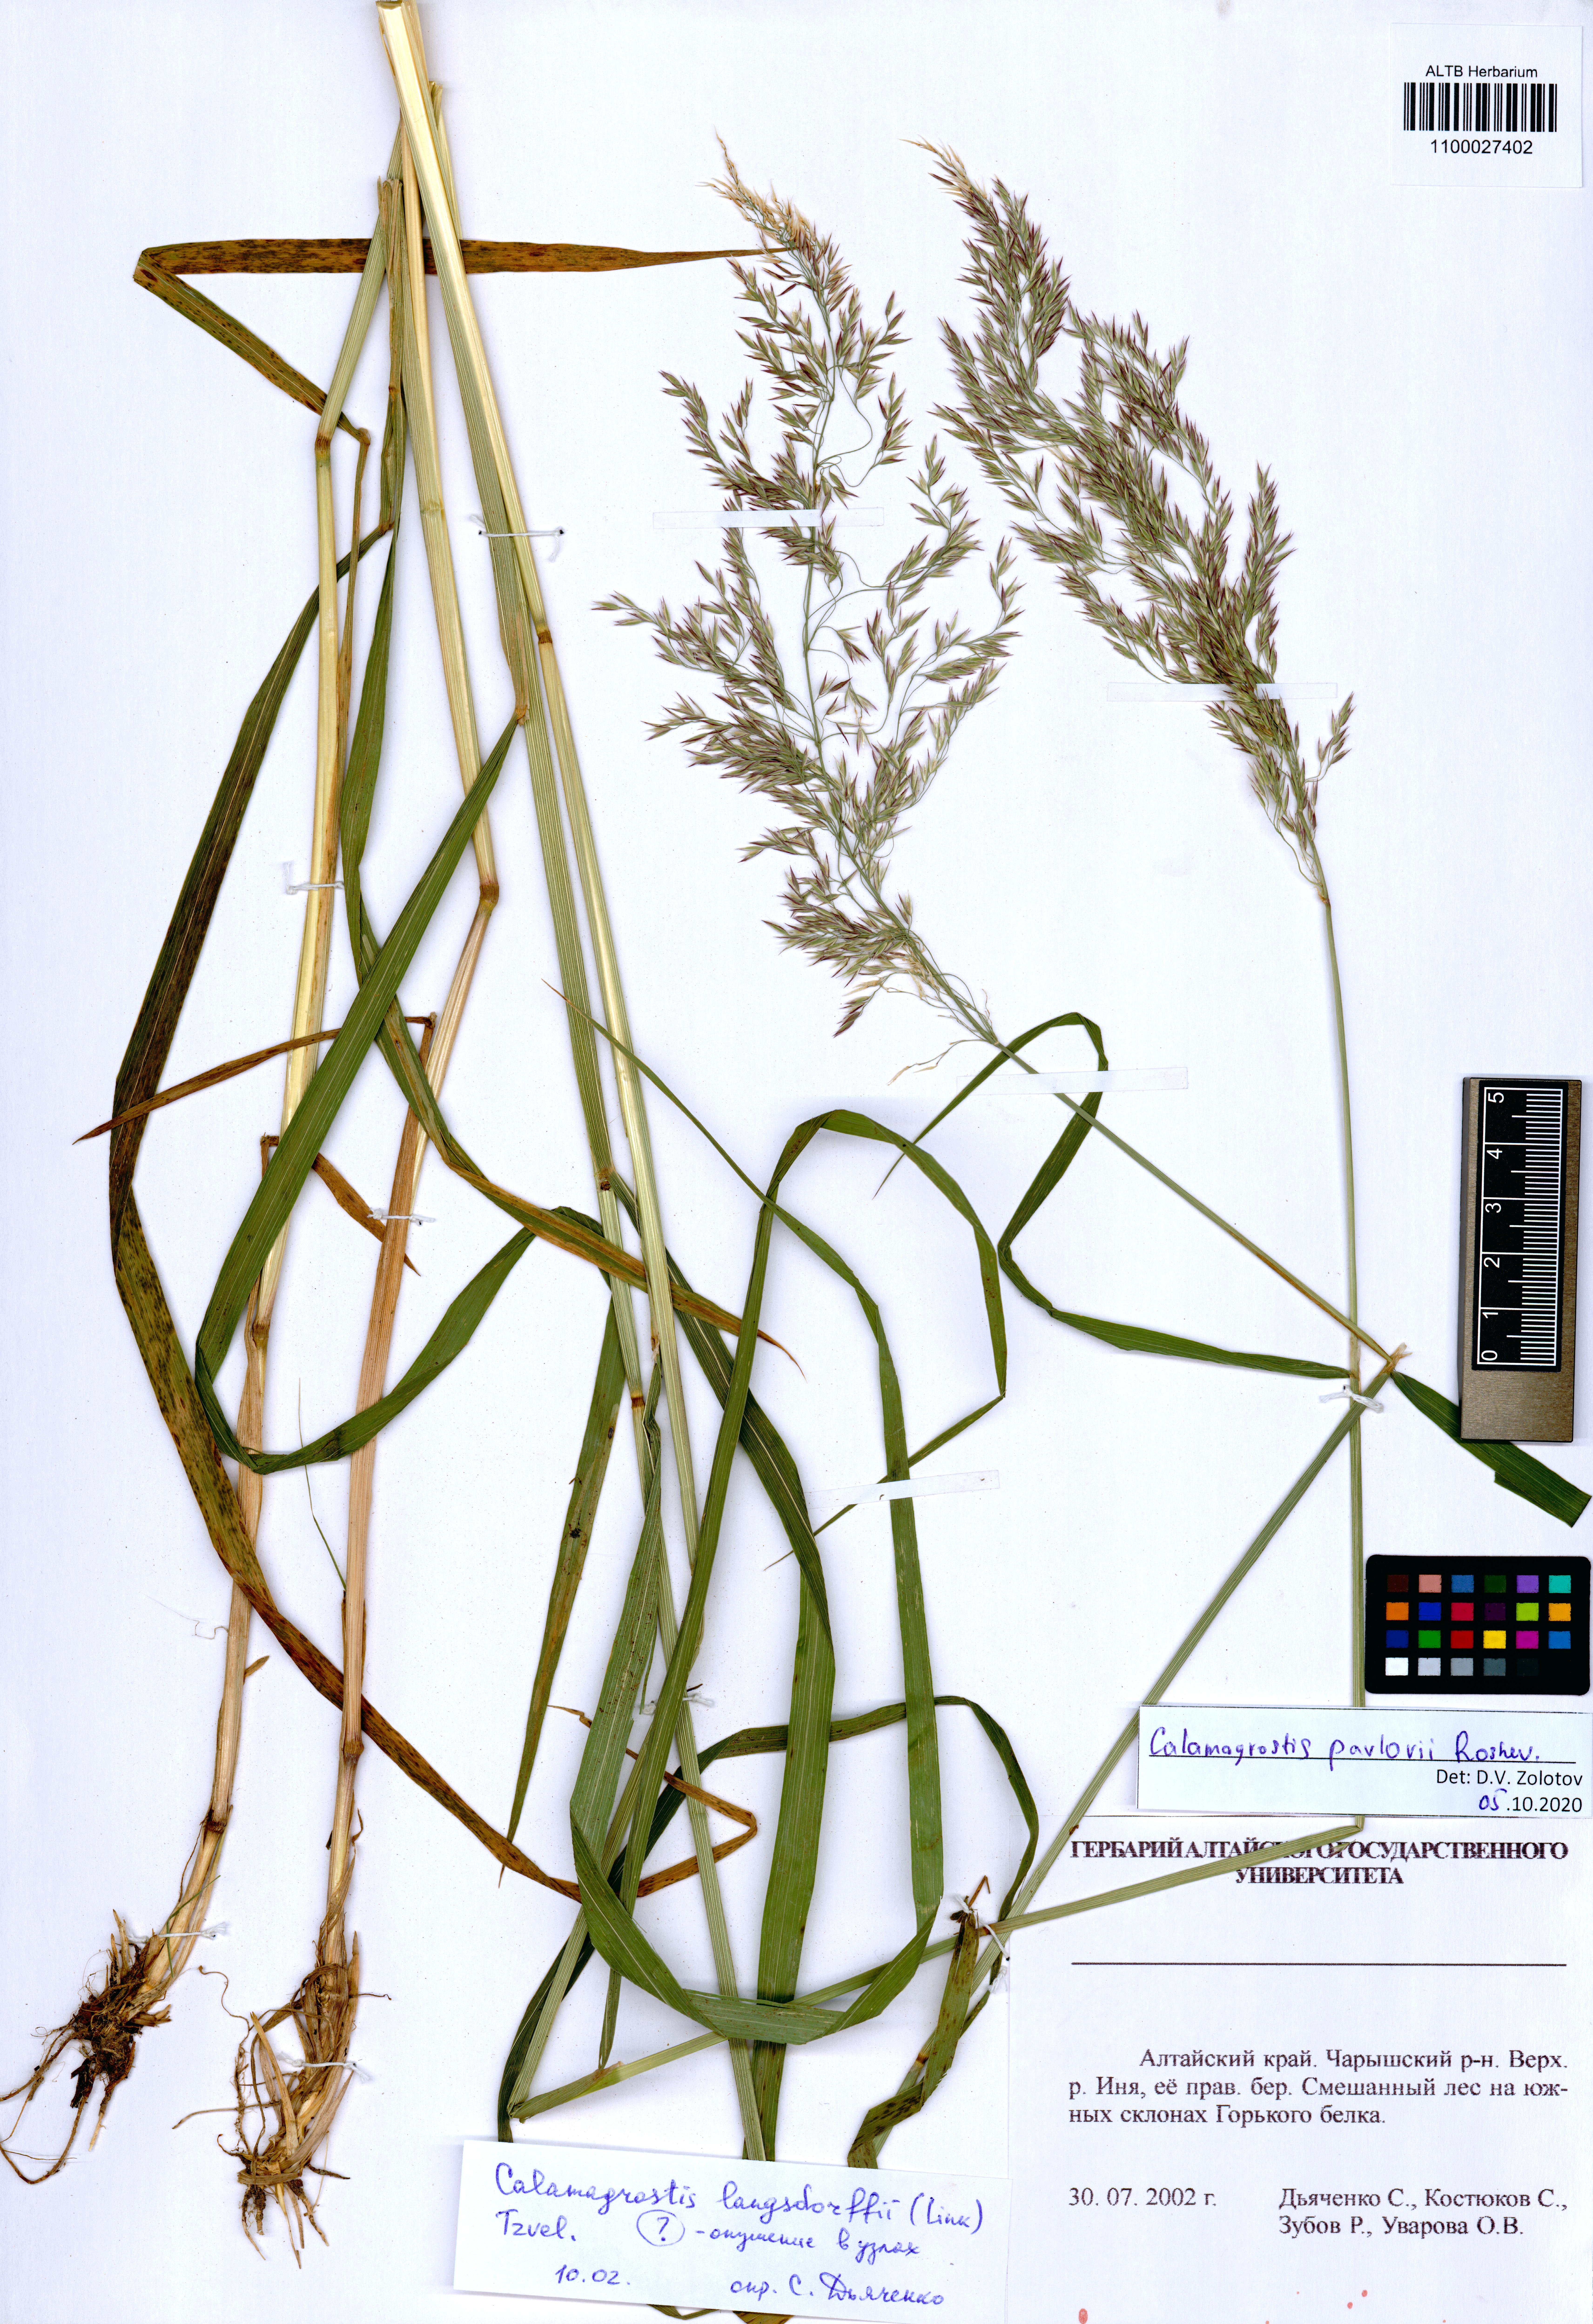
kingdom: Plantae
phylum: Tracheophyta
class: Liliopsida
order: Poales
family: Poaceae
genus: Calamagrostis
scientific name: Calamagrostis pavlovii
